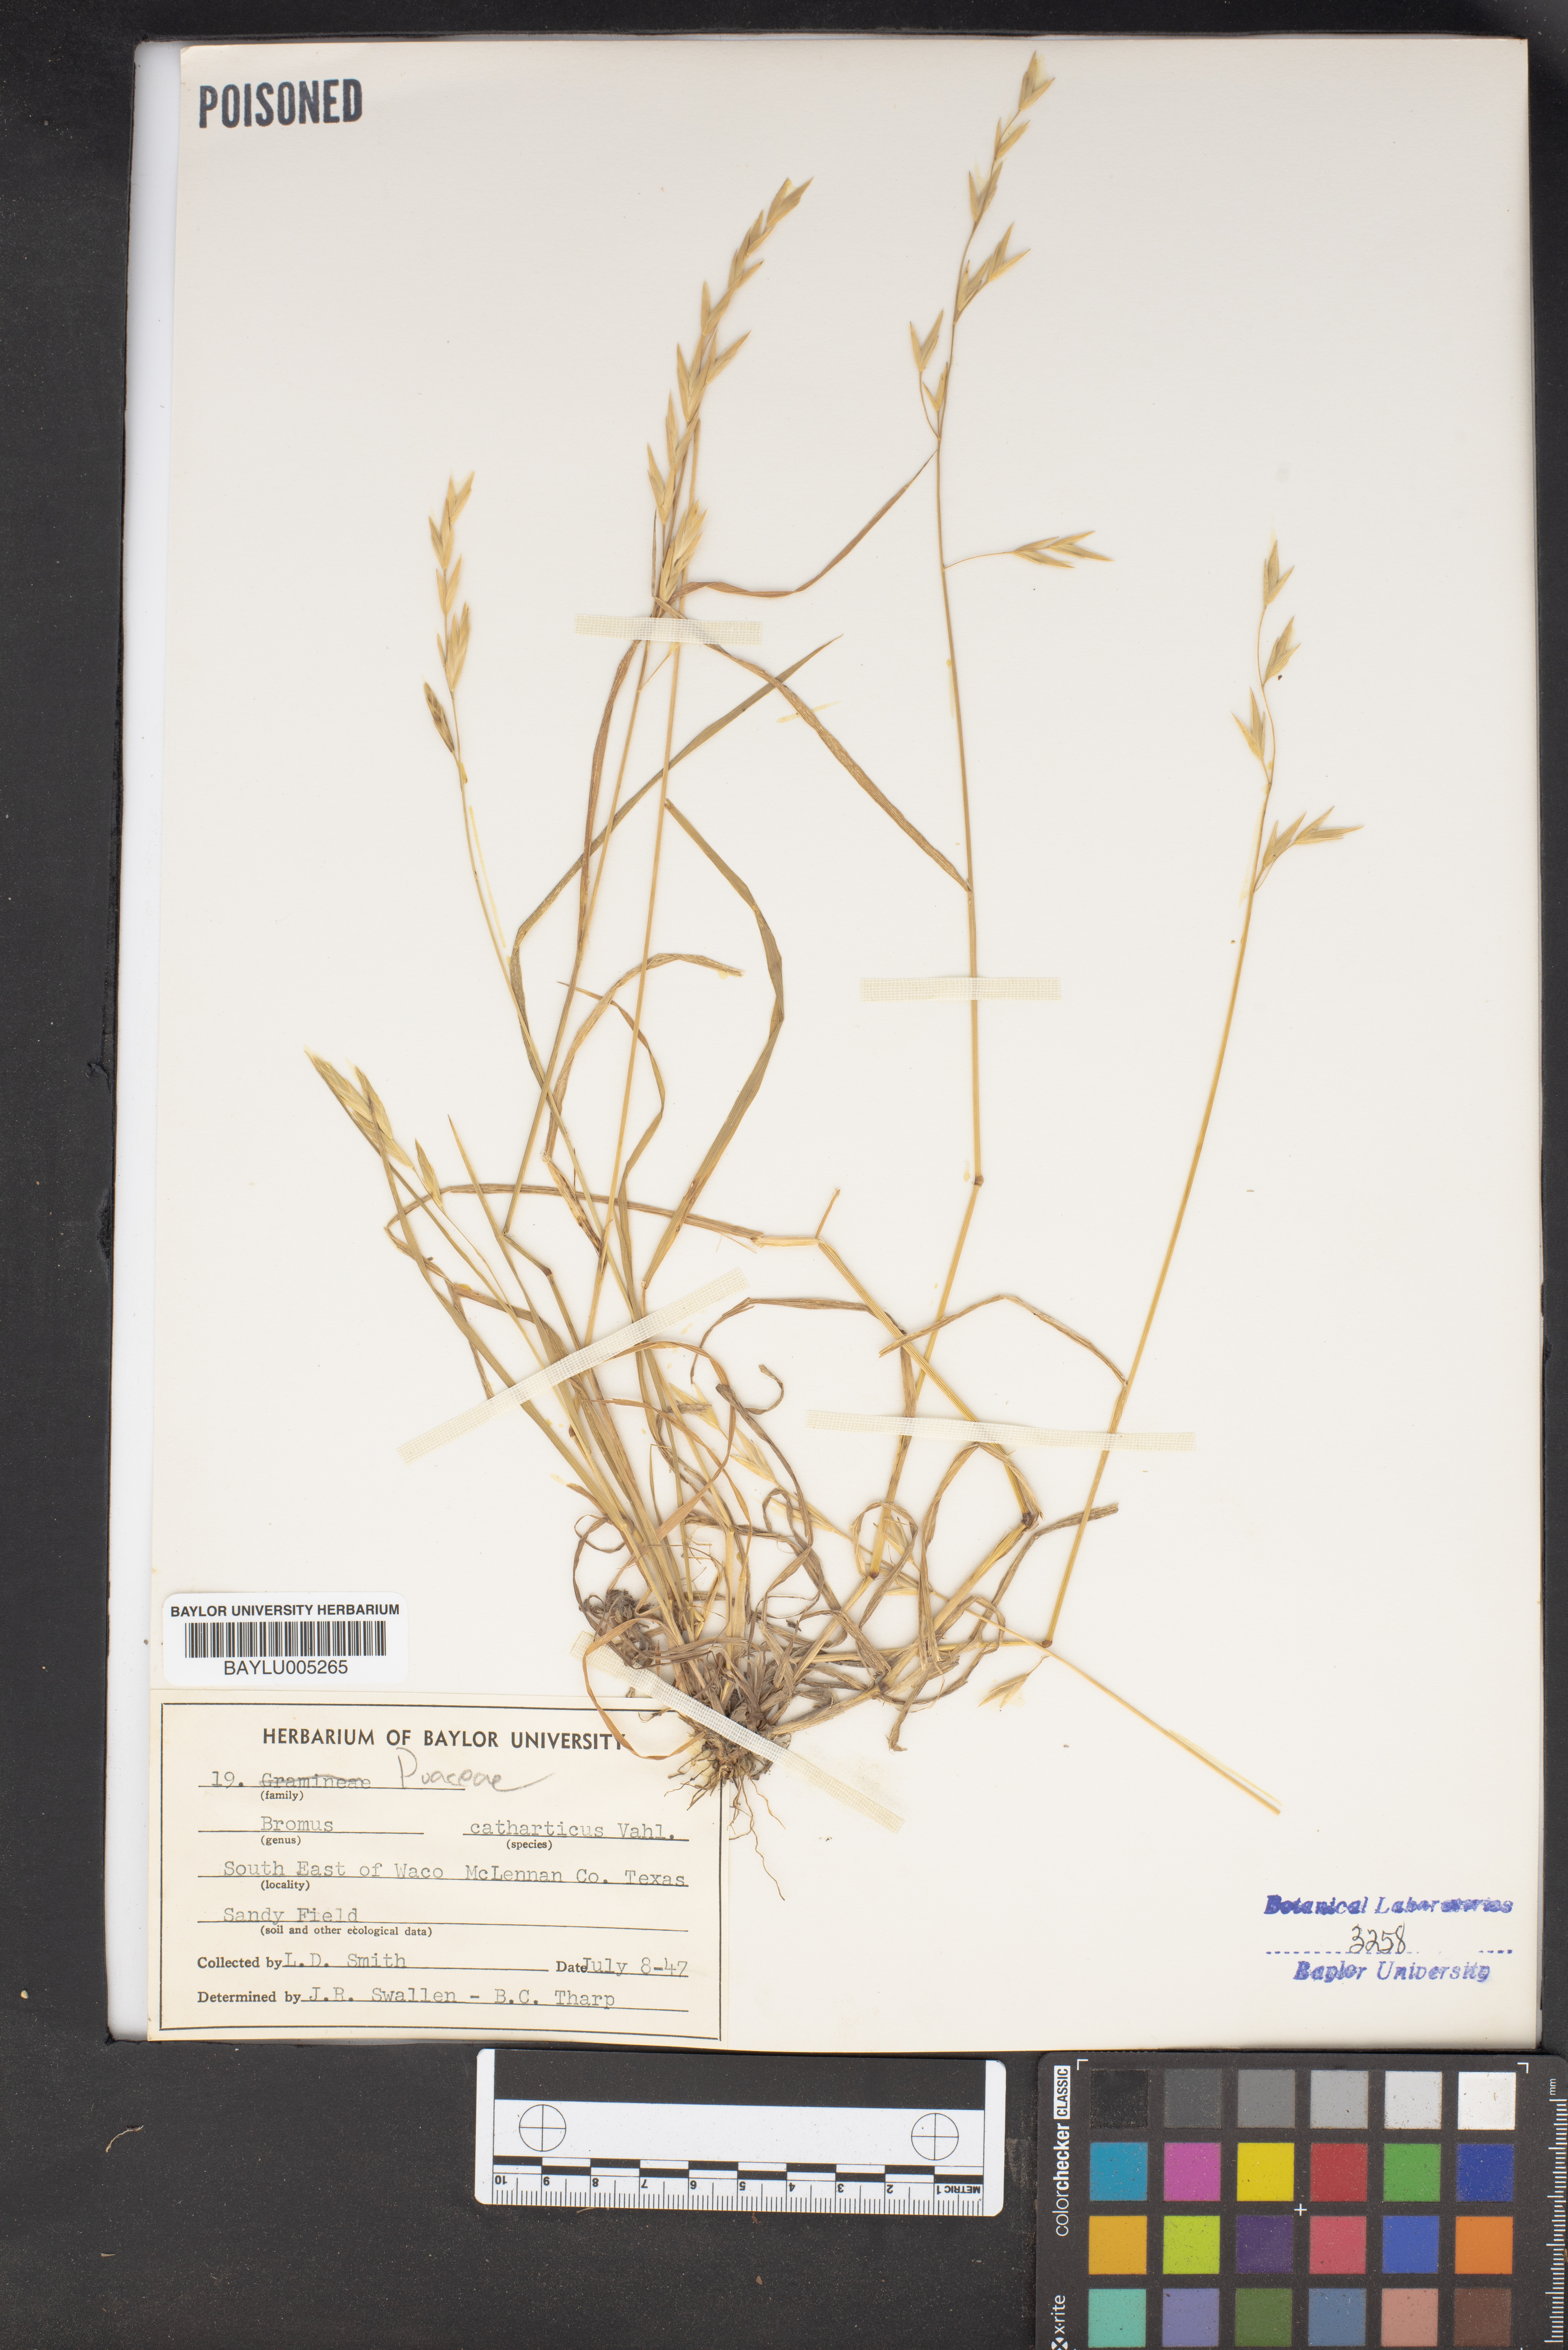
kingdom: Plantae
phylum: Tracheophyta
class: Liliopsida
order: Poales
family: Poaceae
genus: Bromus
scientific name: Bromus catharticus
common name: Rescuegrass
